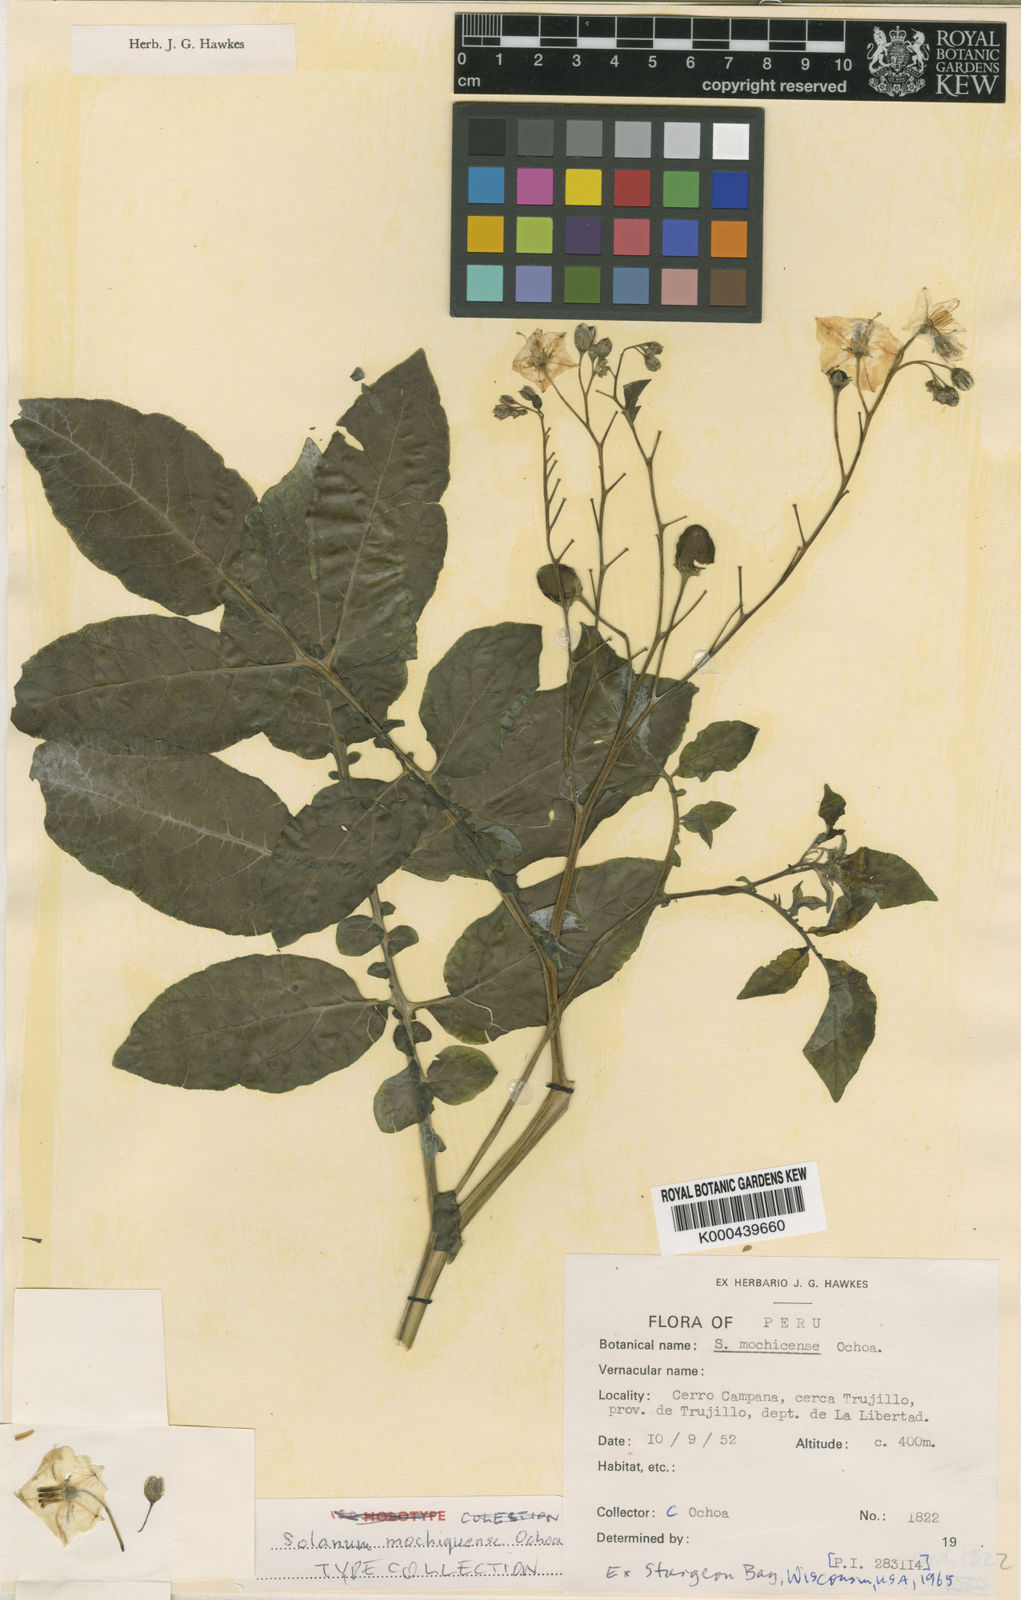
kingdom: Plantae
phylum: Tracheophyta
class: Magnoliopsida
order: Solanales
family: Solanaceae
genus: Solanum
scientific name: Solanum mochiquense
